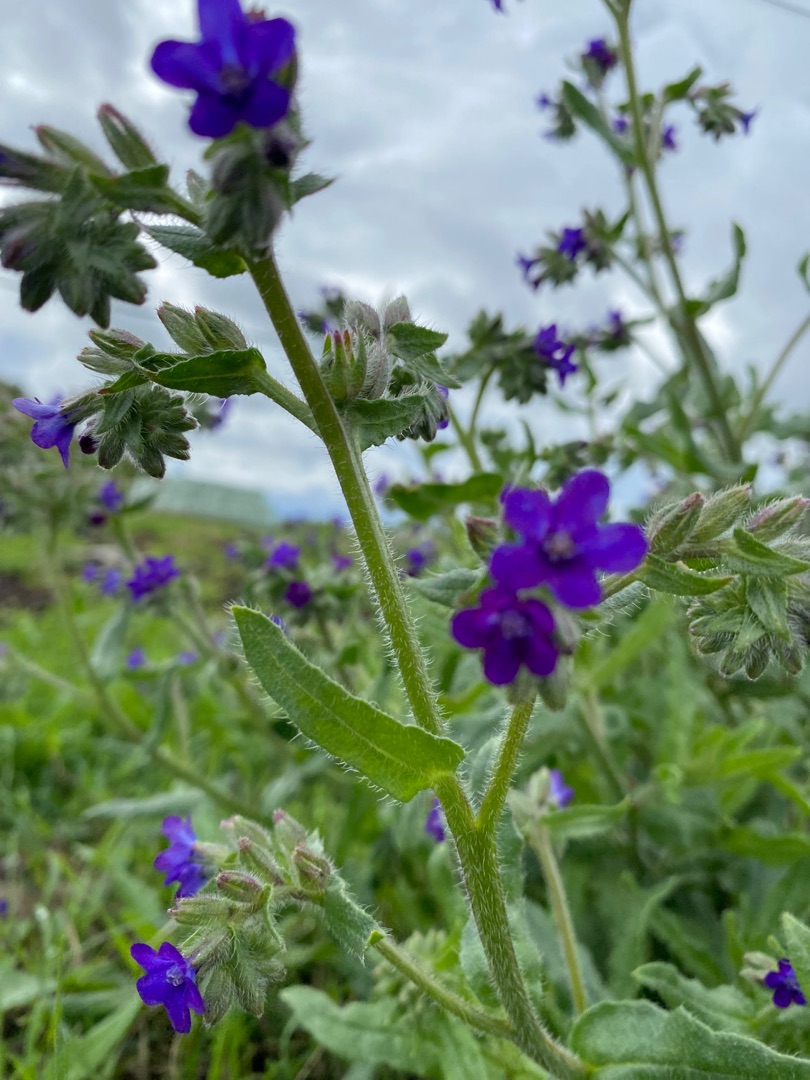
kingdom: Plantae
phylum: Tracheophyta
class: Magnoliopsida
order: Boraginales
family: Boraginaceae
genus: Anchusa
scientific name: Anchusa officinalis
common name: Læge-oksetunge
